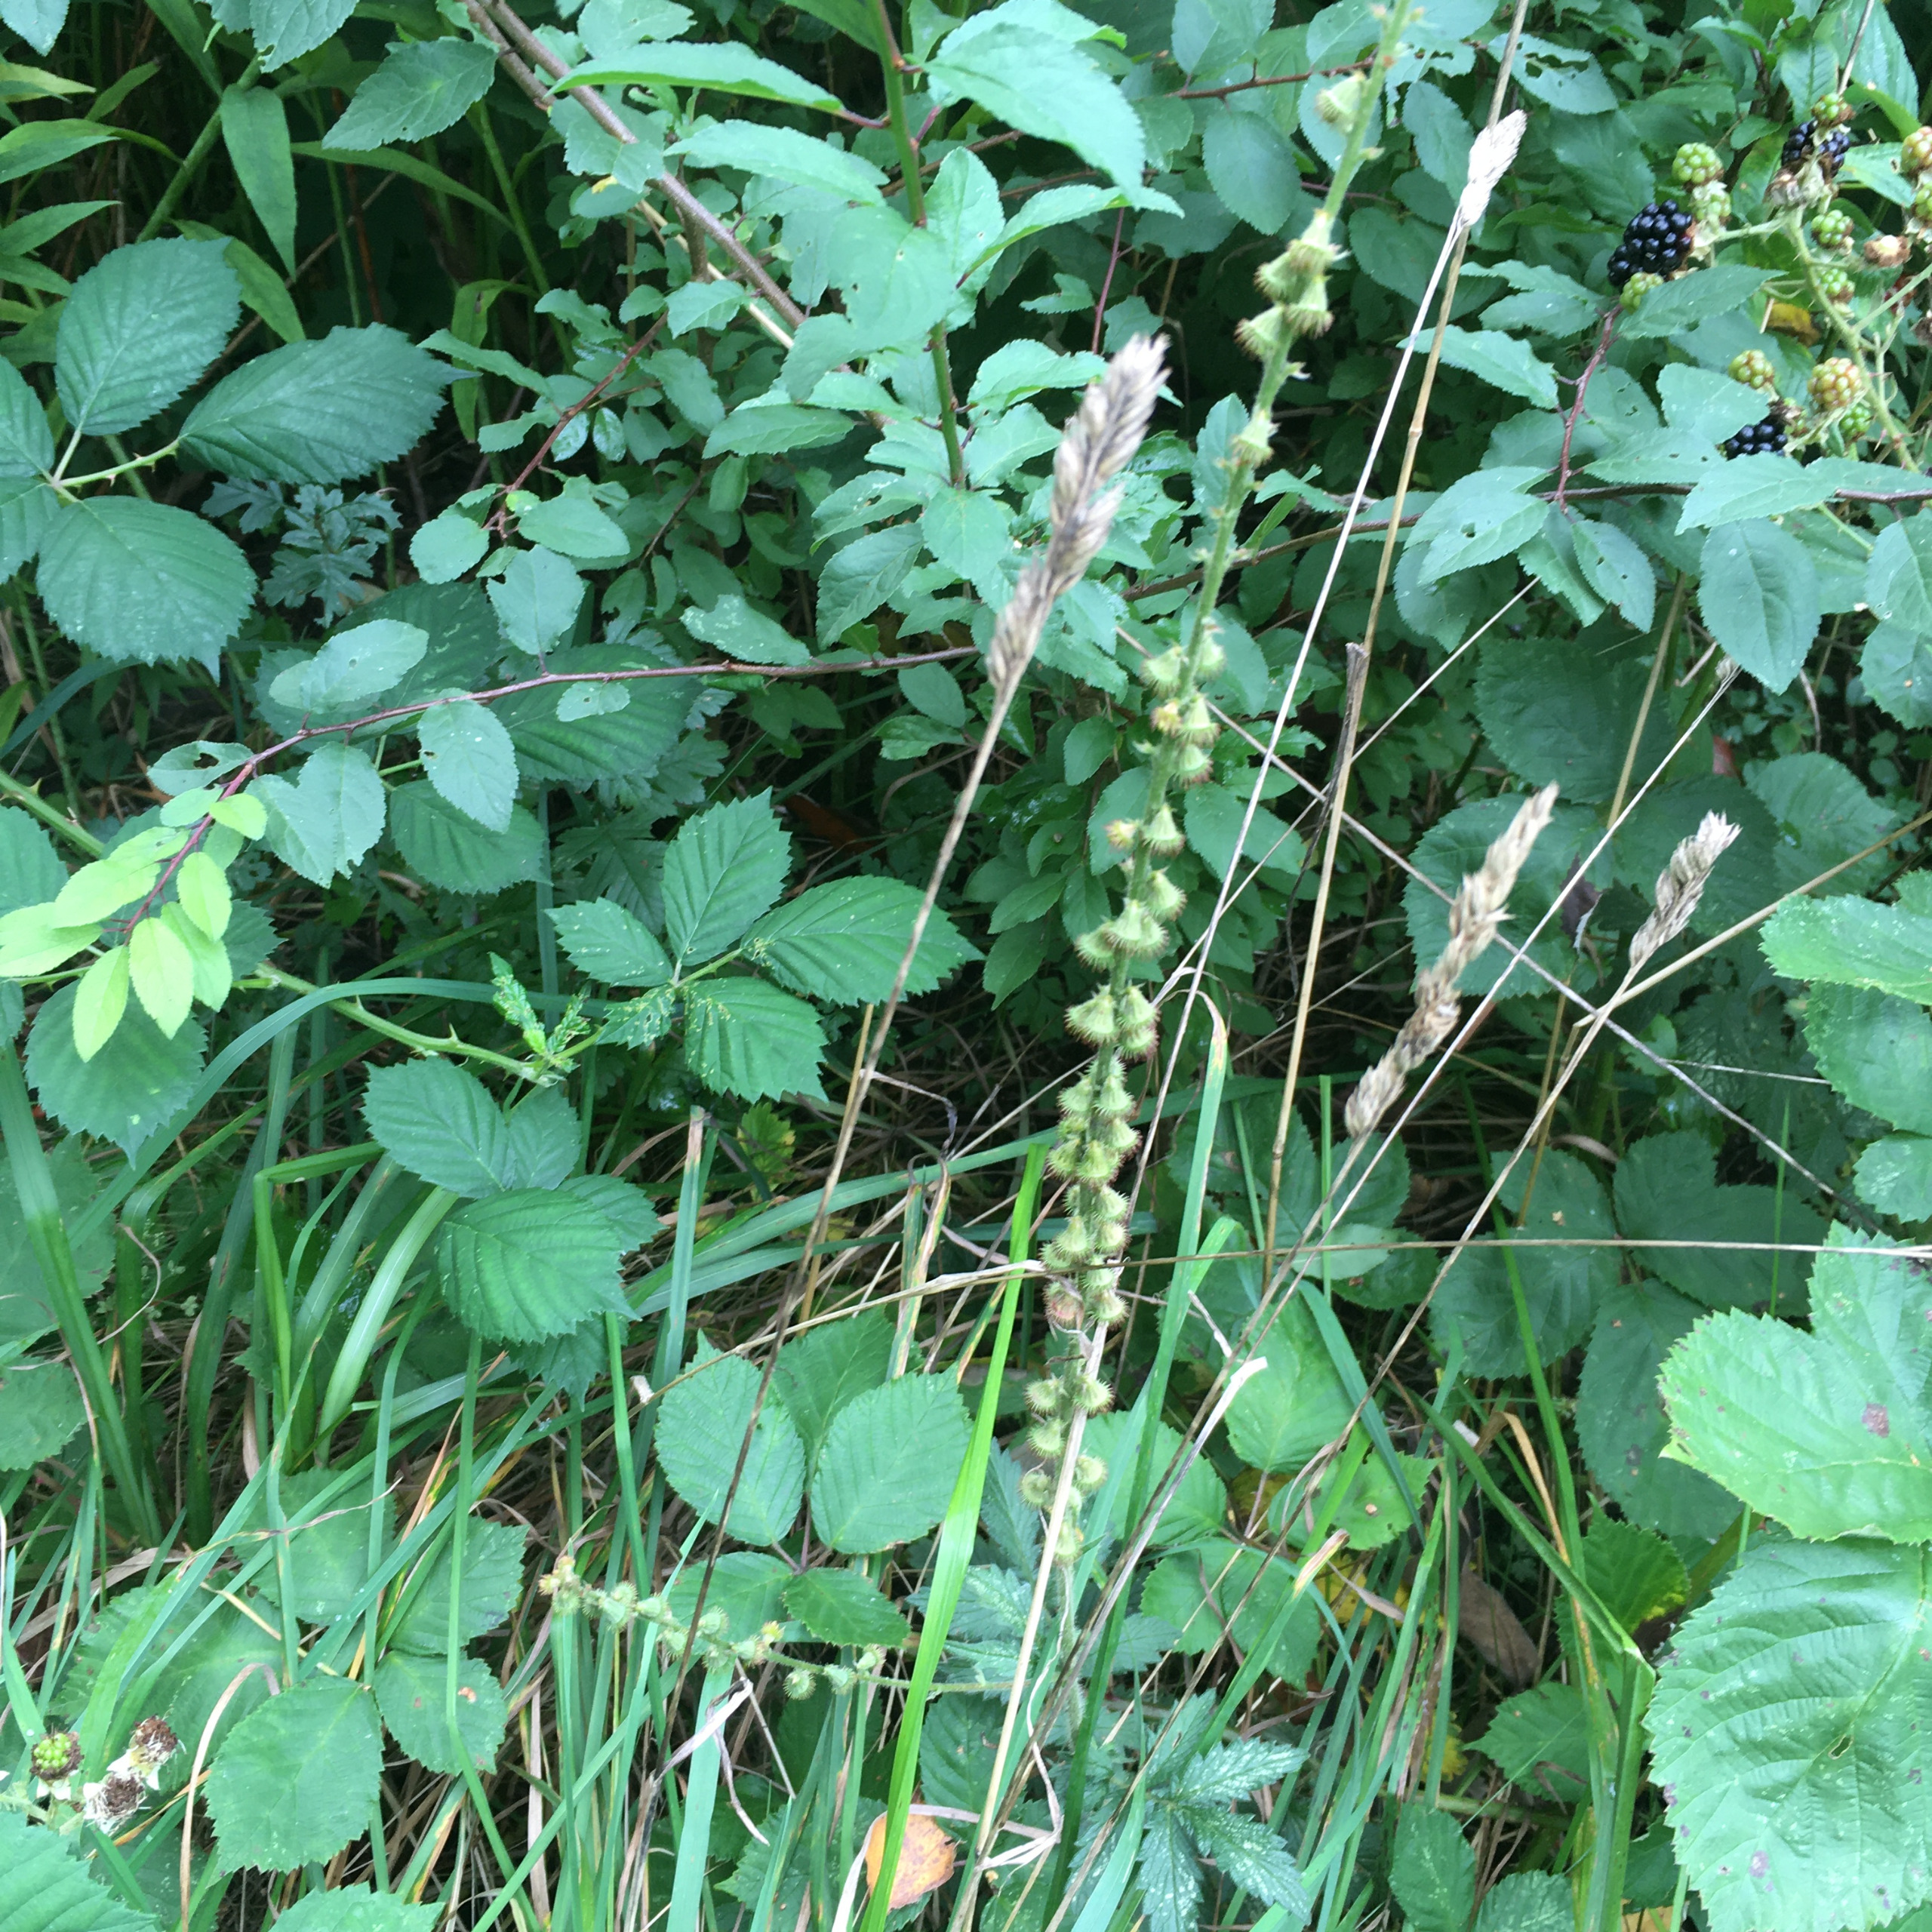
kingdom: Plantae
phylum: Tracheophyta
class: Magnoliopsida
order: Rosales
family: Rosaceae
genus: Agrimonia
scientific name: Agrimonia eupatoria
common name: Almindelig agermåne
